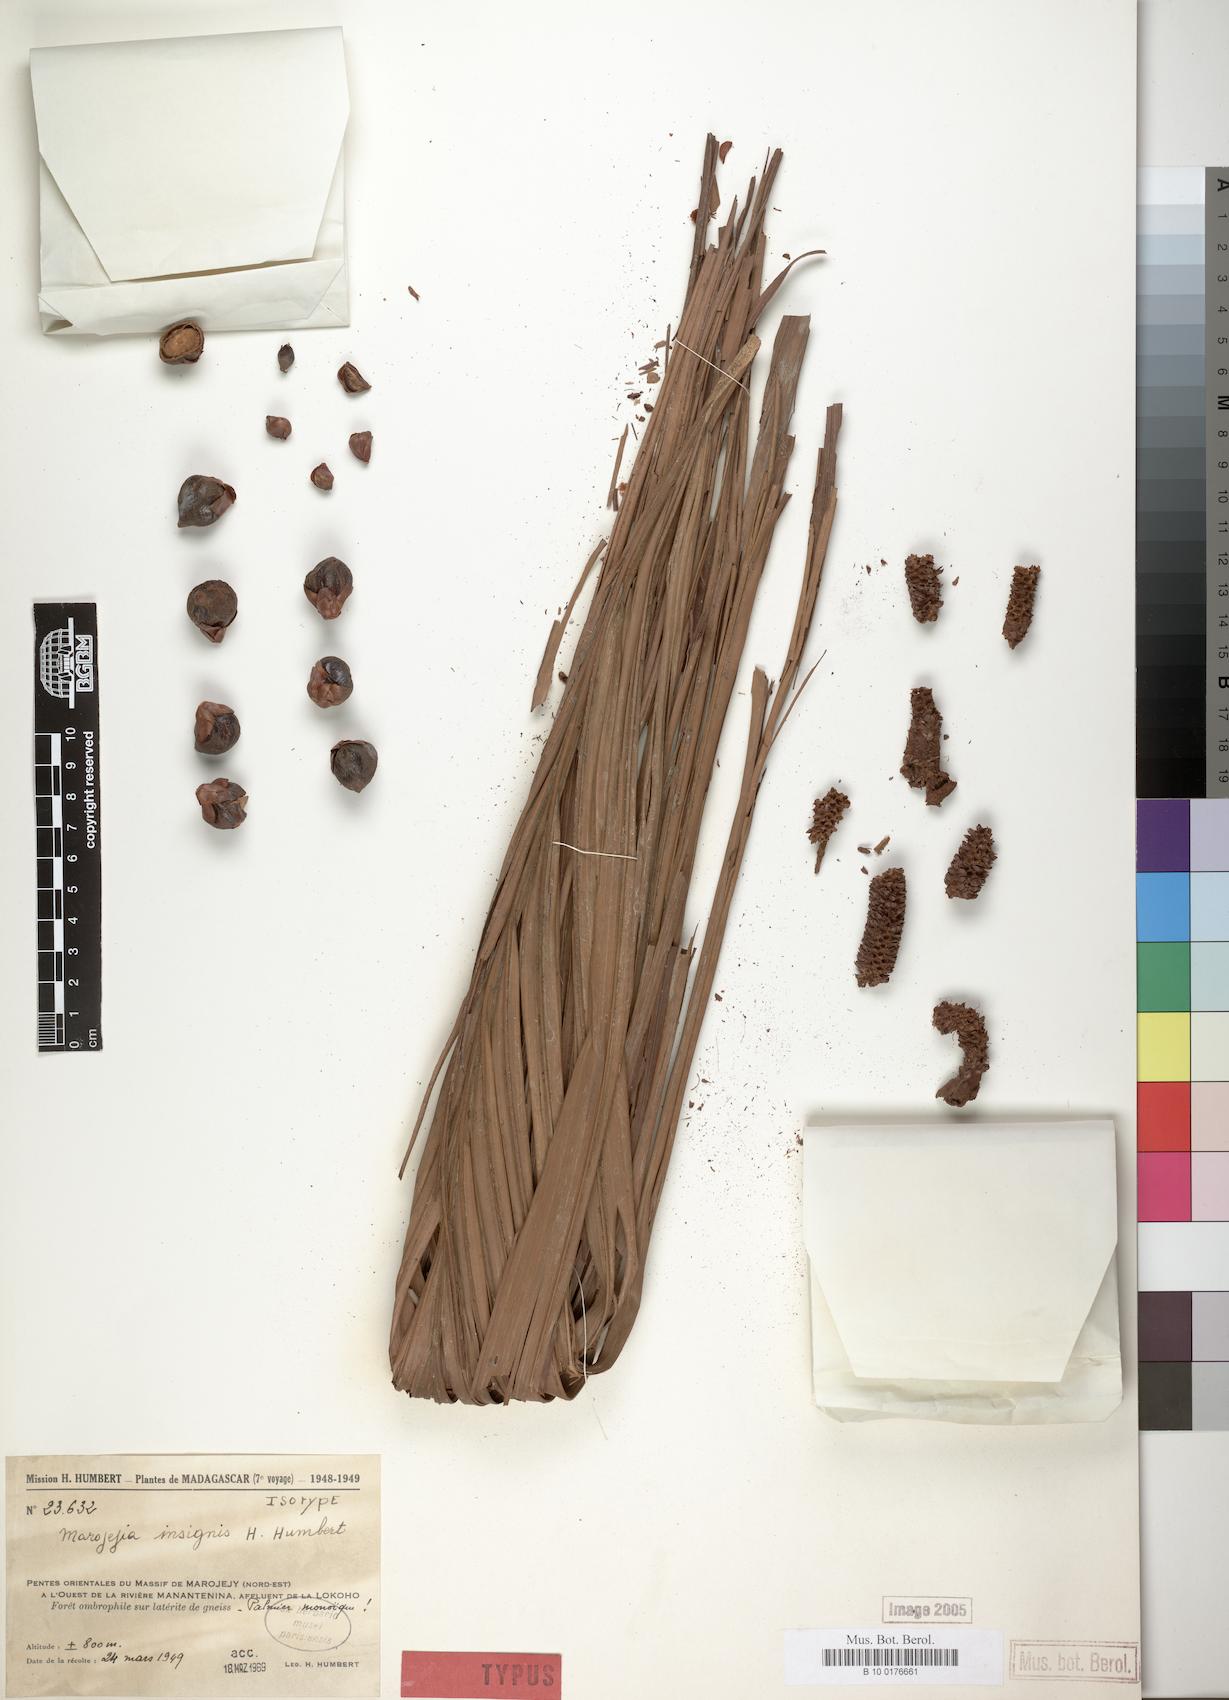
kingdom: Plantae
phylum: Tracheophyta
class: Liliopsida
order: Arecales
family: Arecaceae
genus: Marojejya
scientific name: Marojejya insignis
